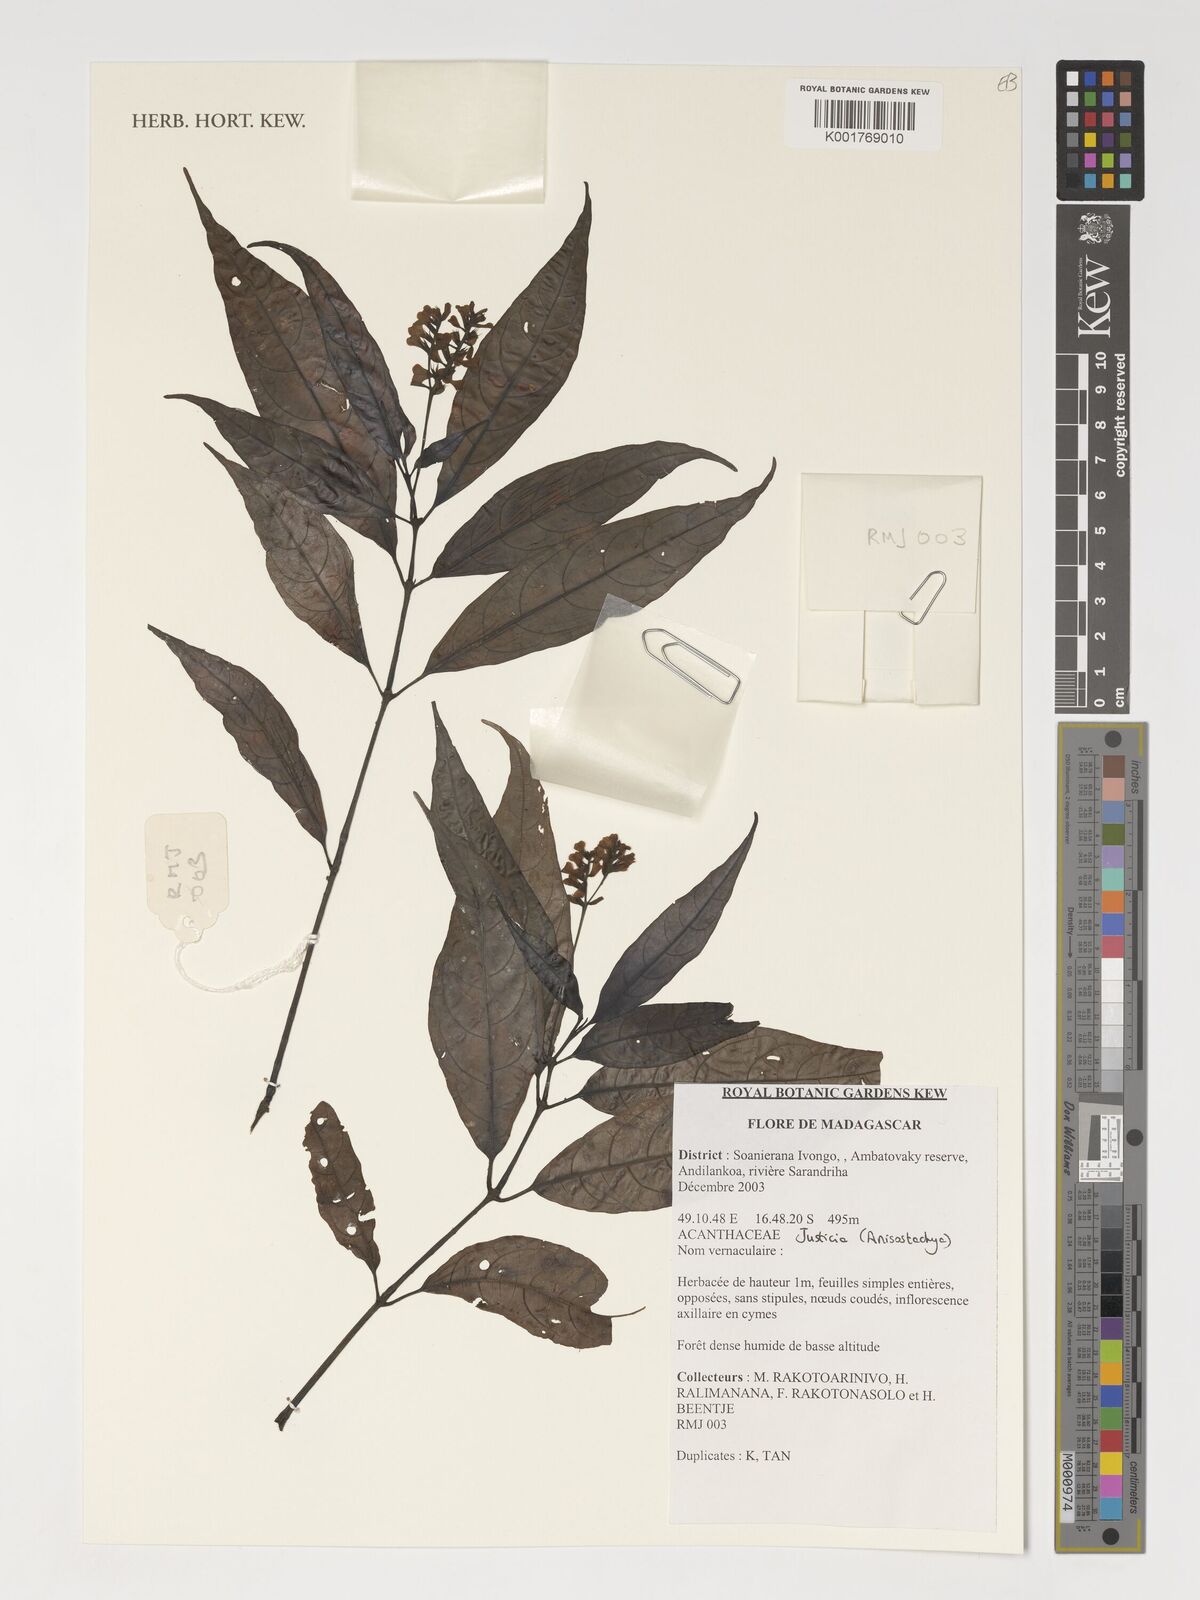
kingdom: Plantae
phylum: Tracheophyta
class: Magnoliopsida
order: Lamiales
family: Acanthaceae
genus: Justicia
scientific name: Justicia
